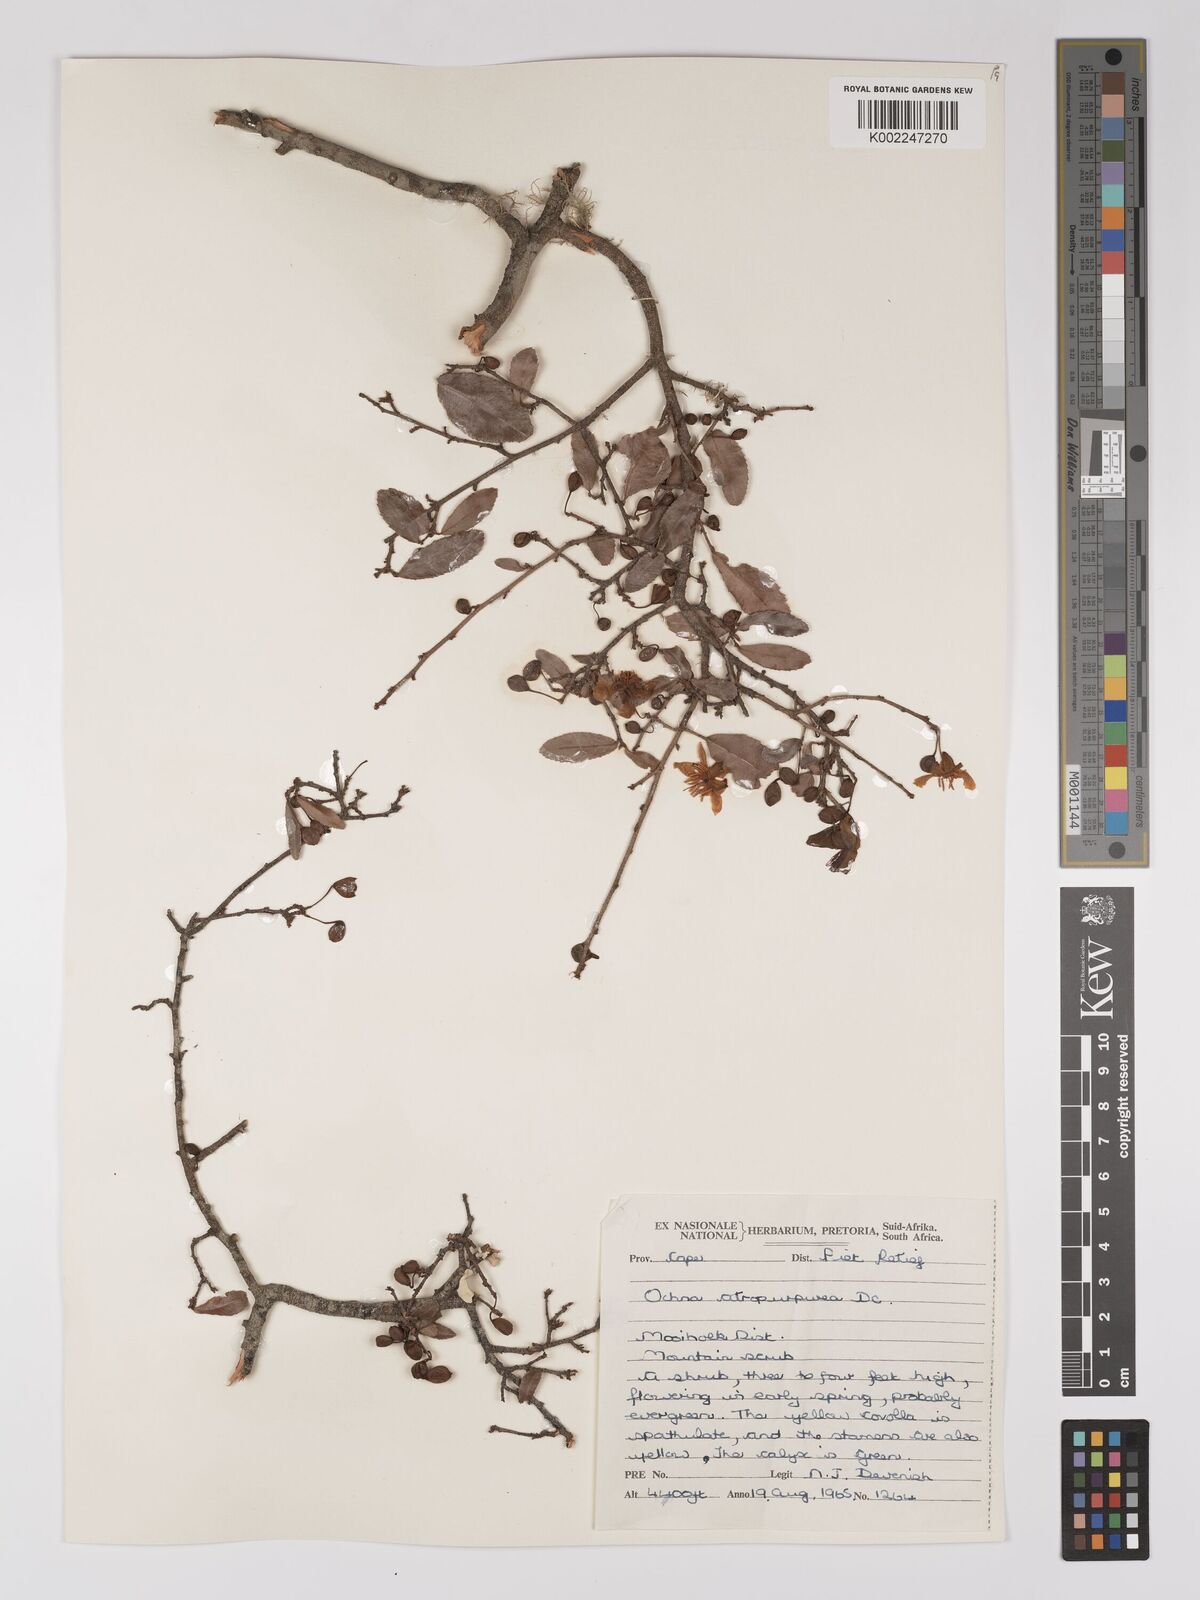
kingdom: Plantae
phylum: Tracheophyta
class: Magnoliopsida
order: Malpighiales
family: Ochnaceae
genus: Ochna
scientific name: Ochna gamostigmata
